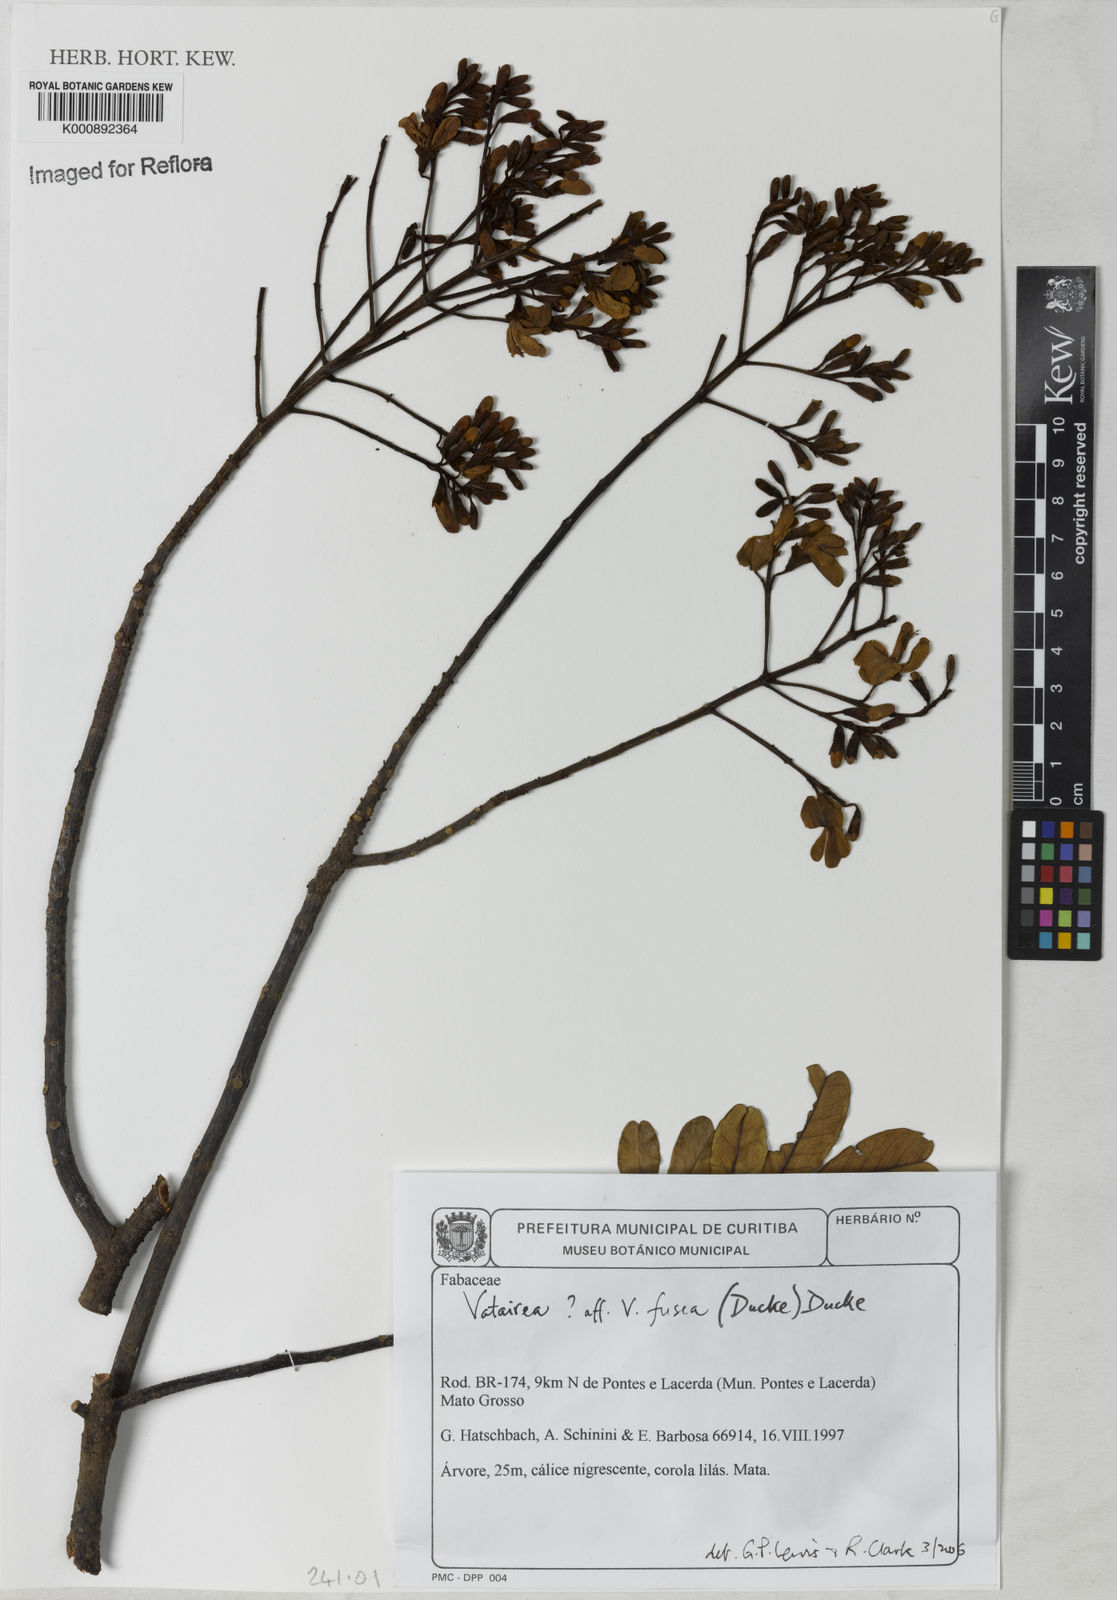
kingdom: Plantae
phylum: Tracheophyta
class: Magnoliopsida
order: Fabales
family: Fabaceae
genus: Vatairea
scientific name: Vatairea fusca
